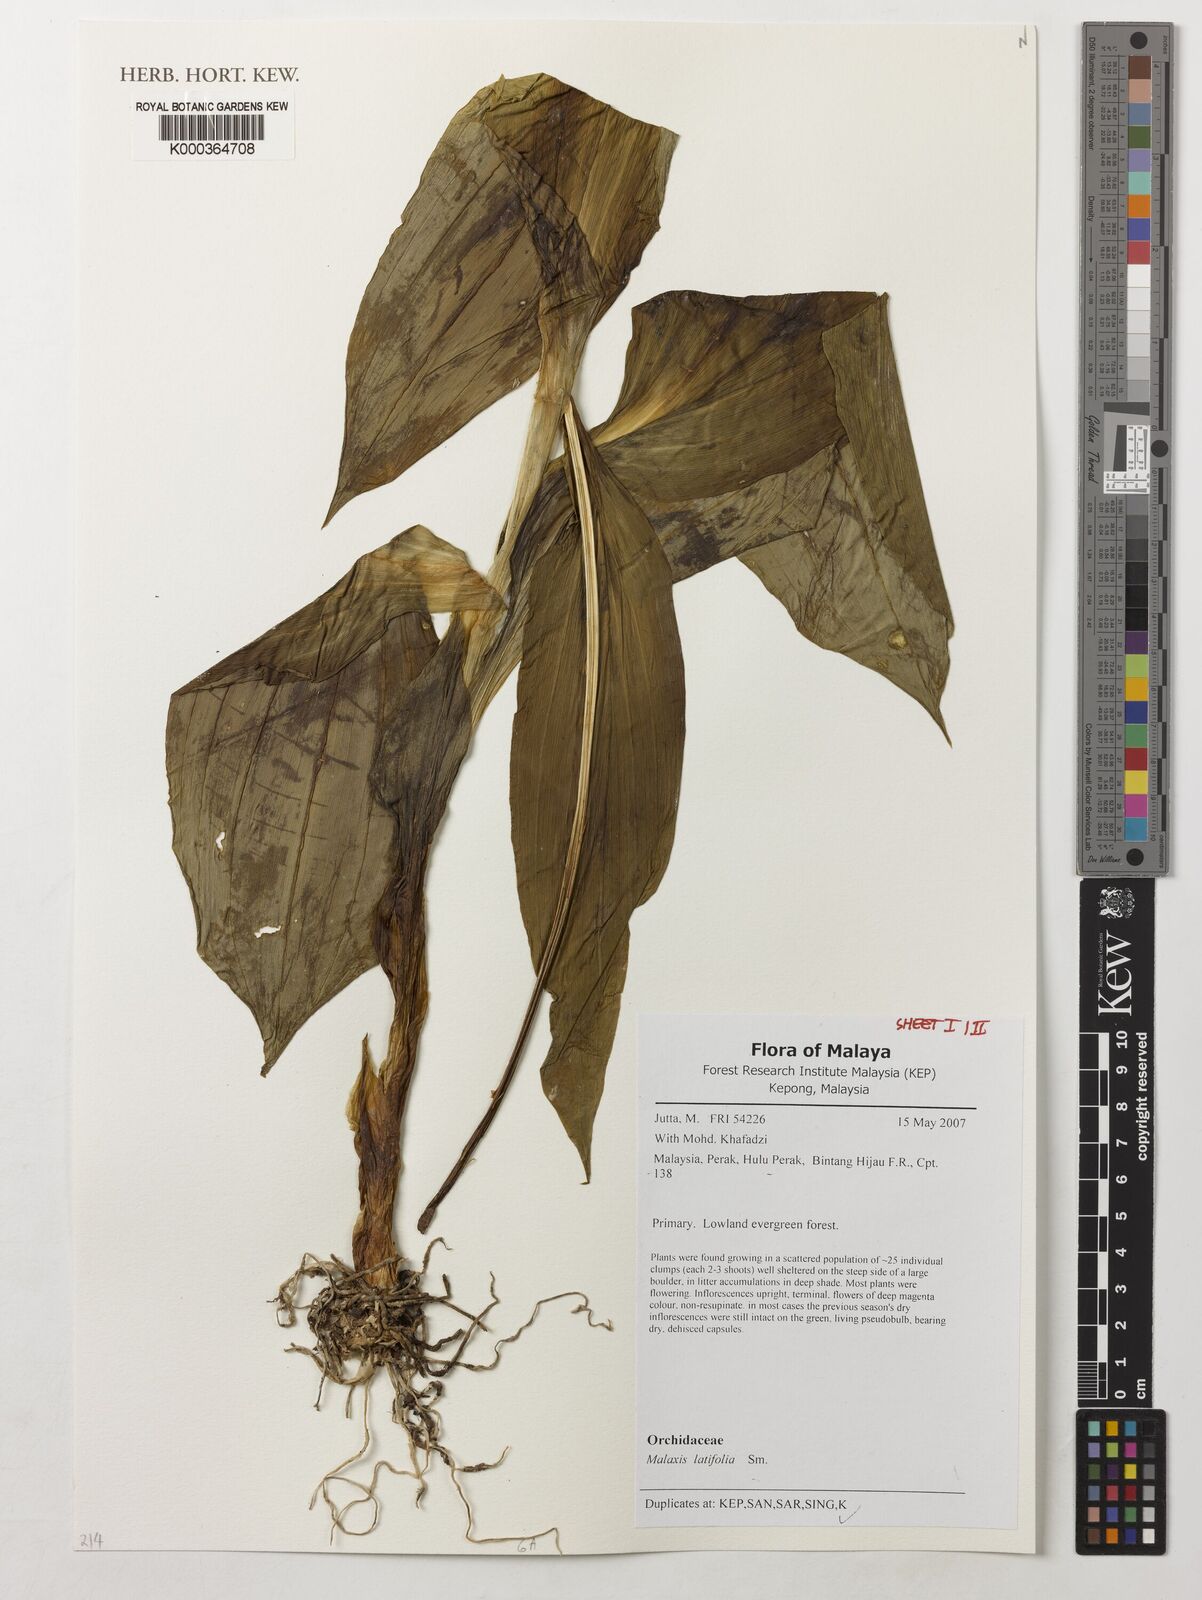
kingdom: Plantae
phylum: Tracheophyta
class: Liliopsida
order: Asparagales
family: Orchidaceae
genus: Dienia
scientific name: Dienia ophrydis
